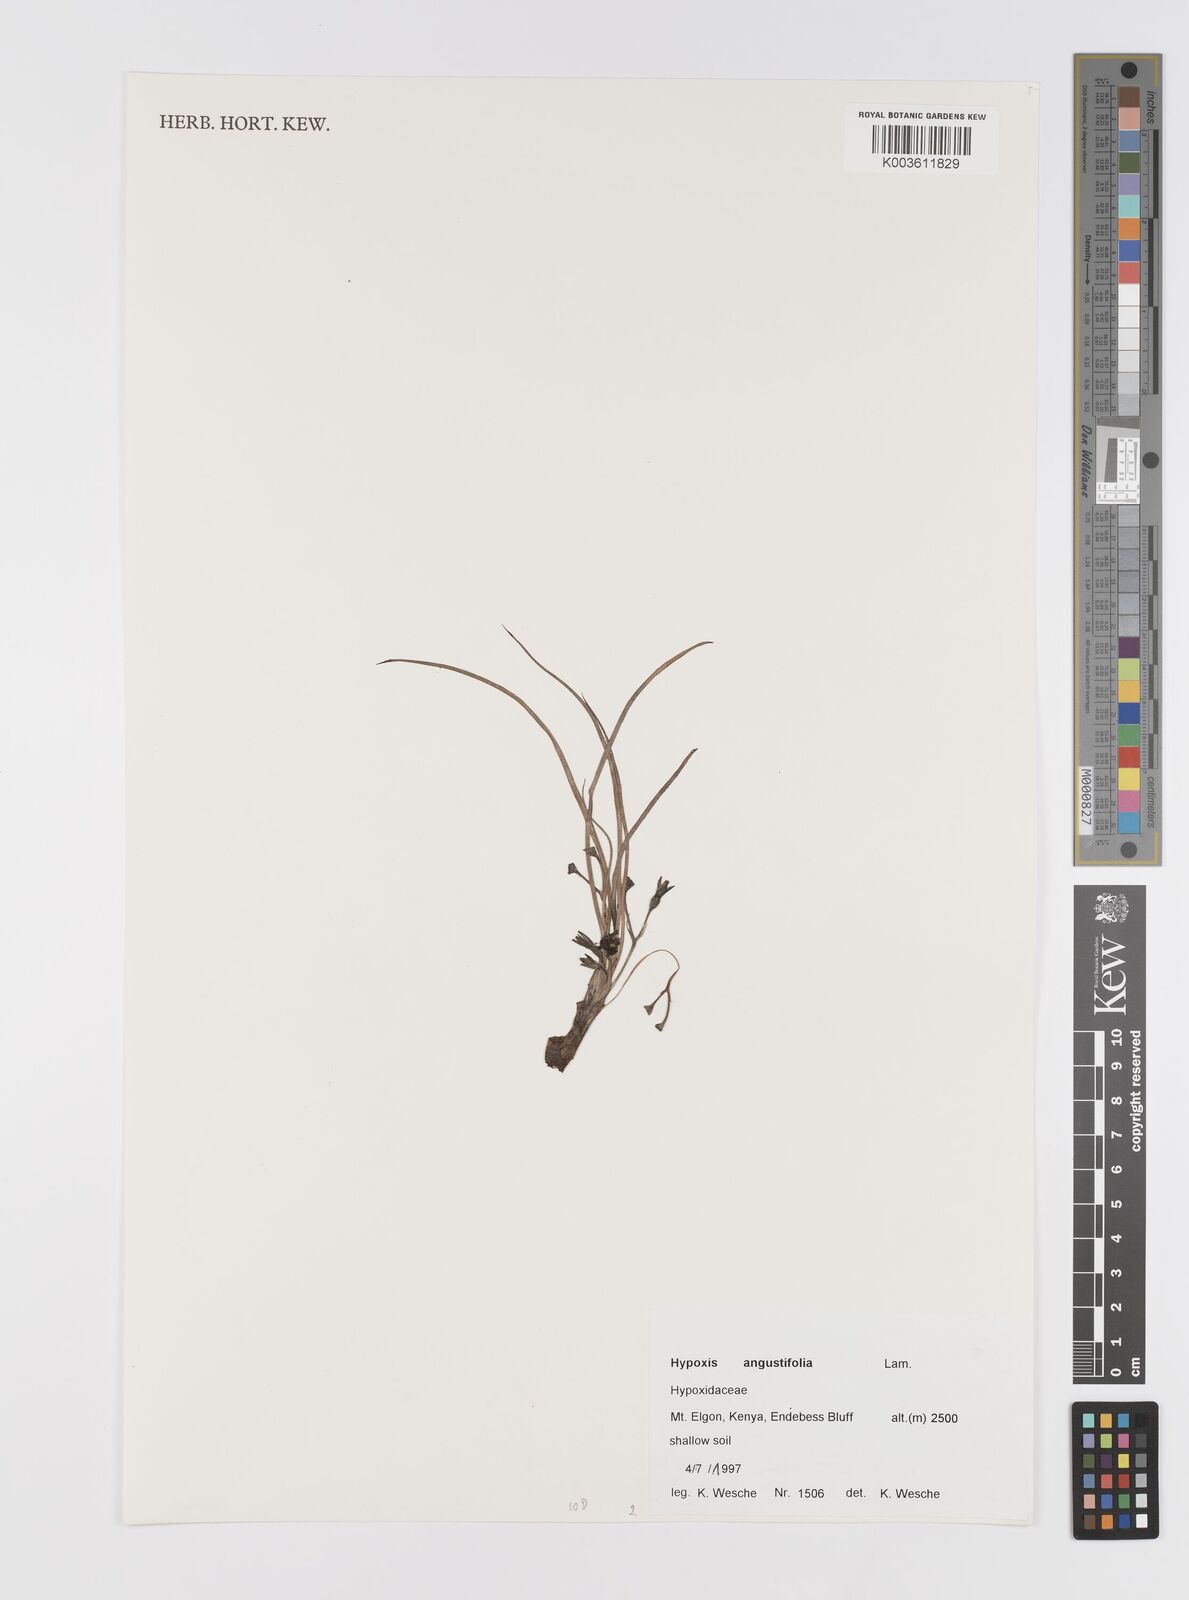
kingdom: Plantae
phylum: Tracheophyta
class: Liliopsida
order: Asparagales
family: Hypoxidaceae
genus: Hypoxis
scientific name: Hypoxis angustifolia
